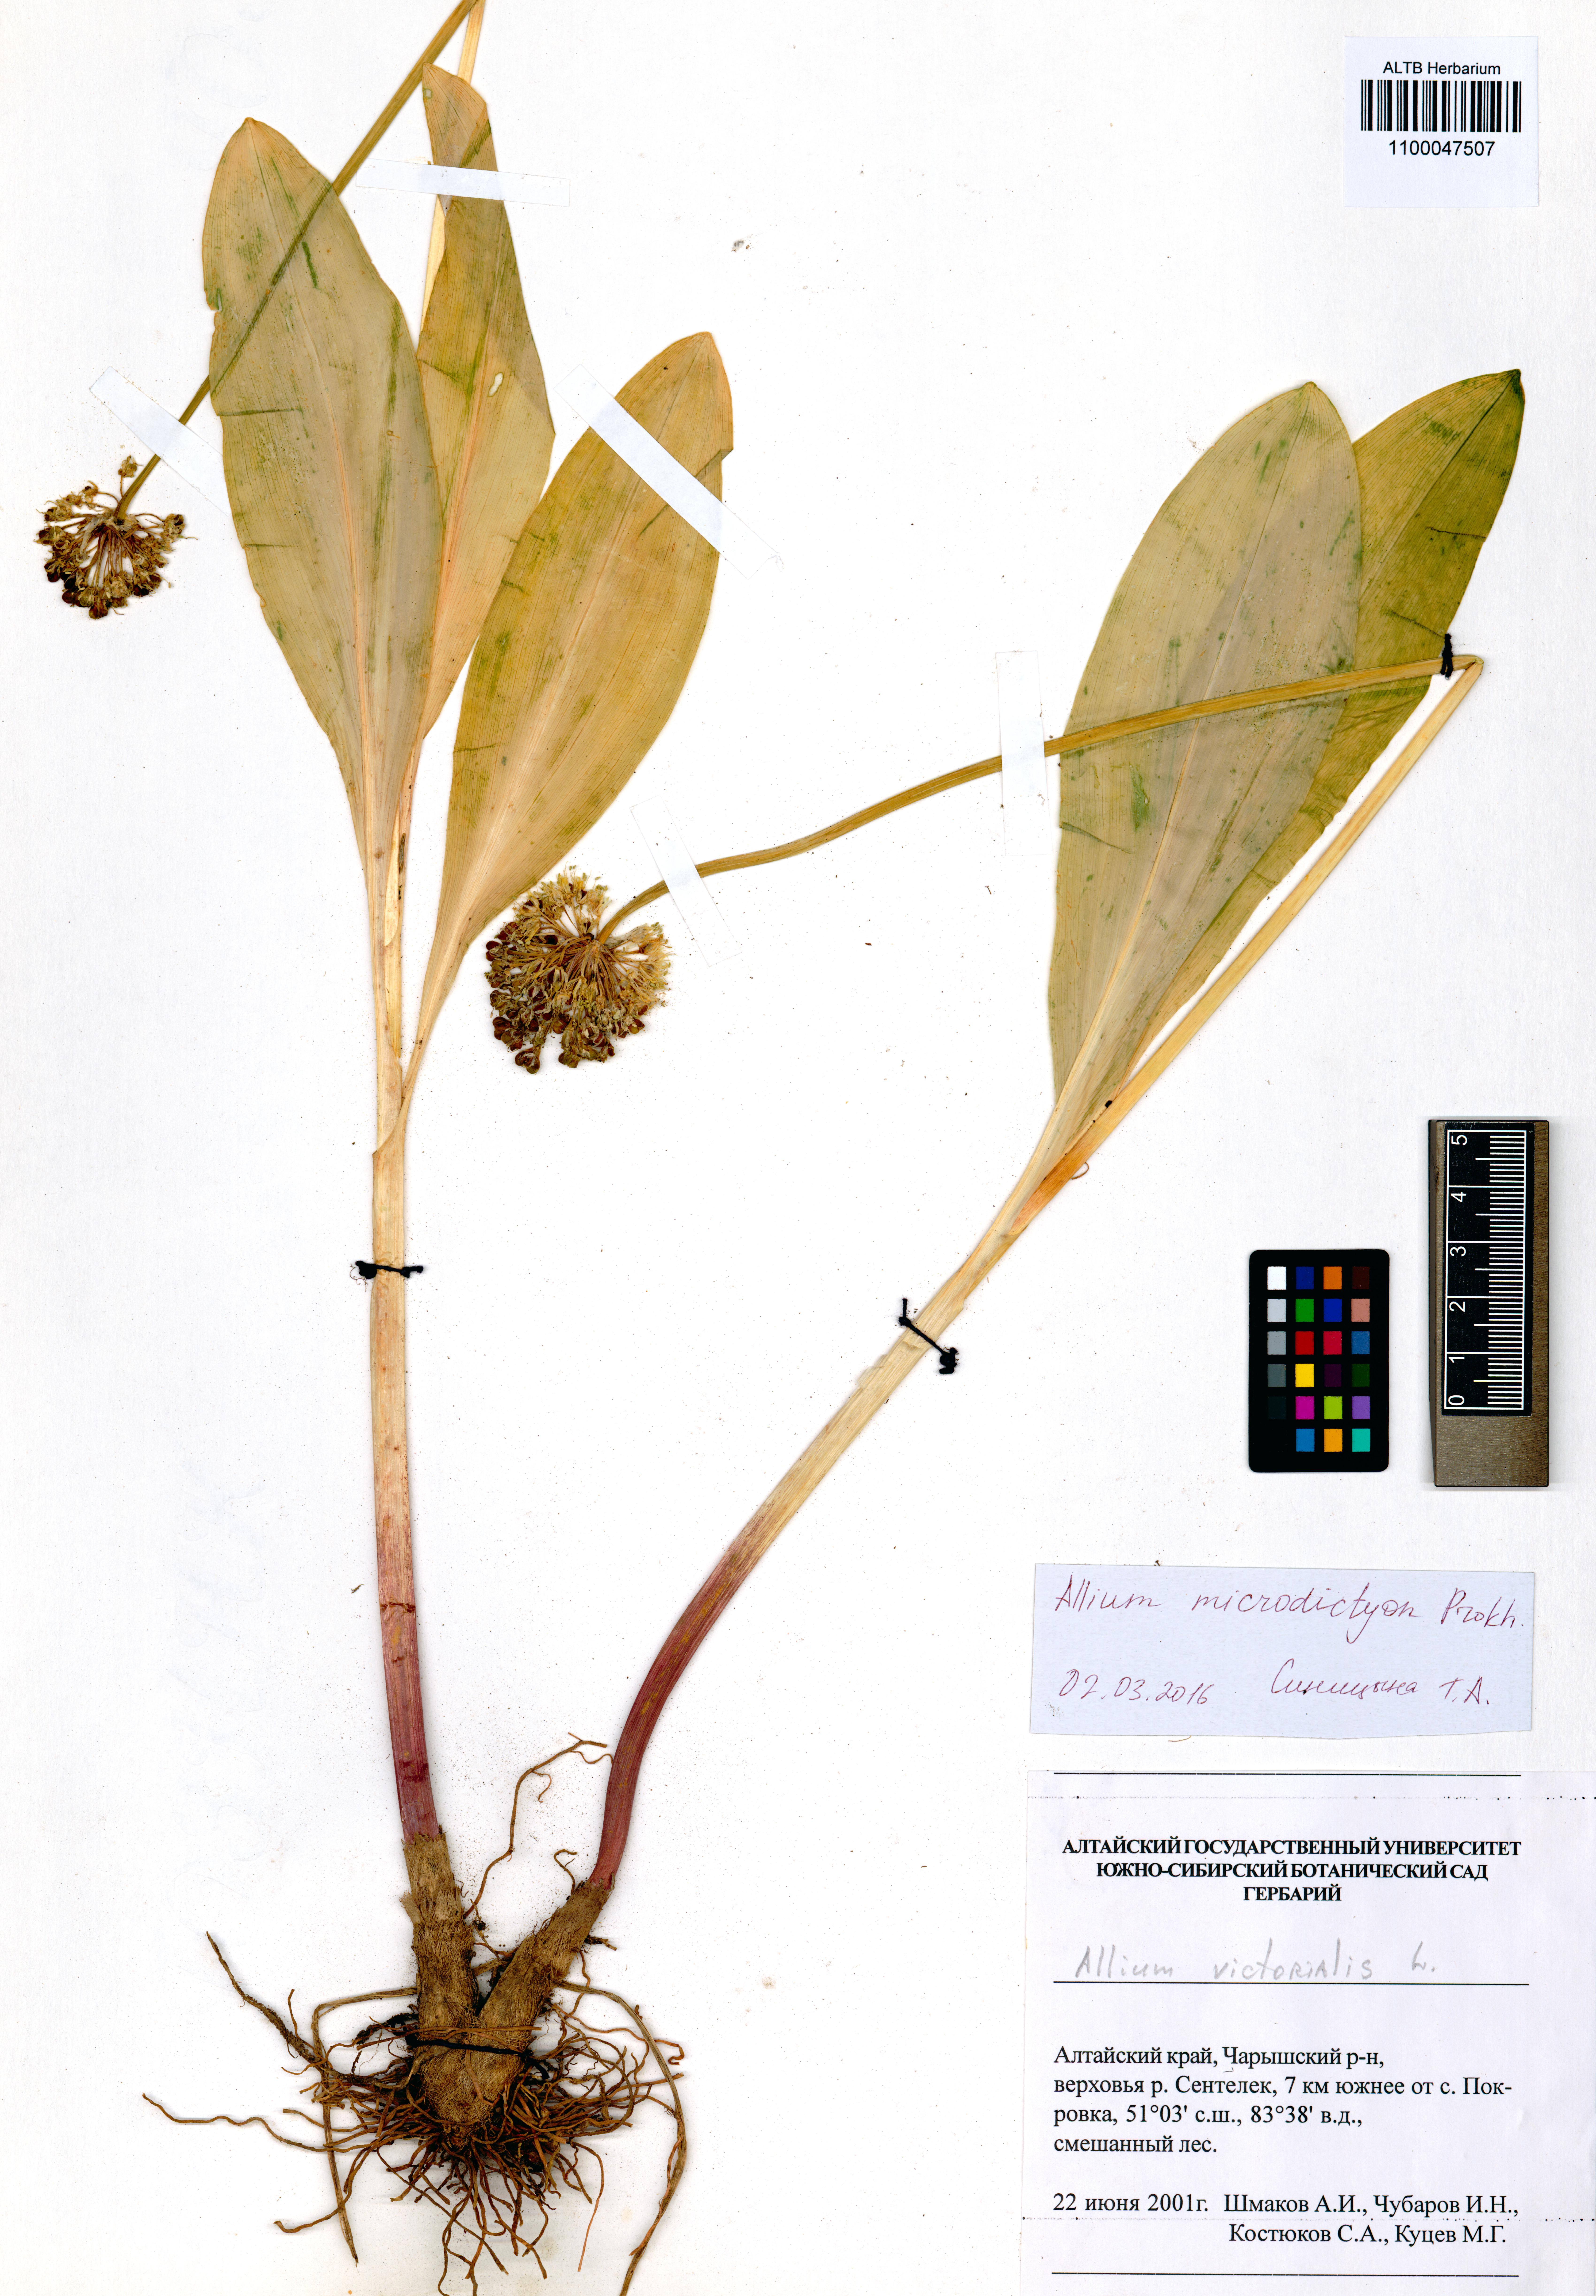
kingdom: Plantae
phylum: Tracheophyta
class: Liliopsida
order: Asparagales
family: Amaryllidaceae
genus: Allium
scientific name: Allium microdictyon
